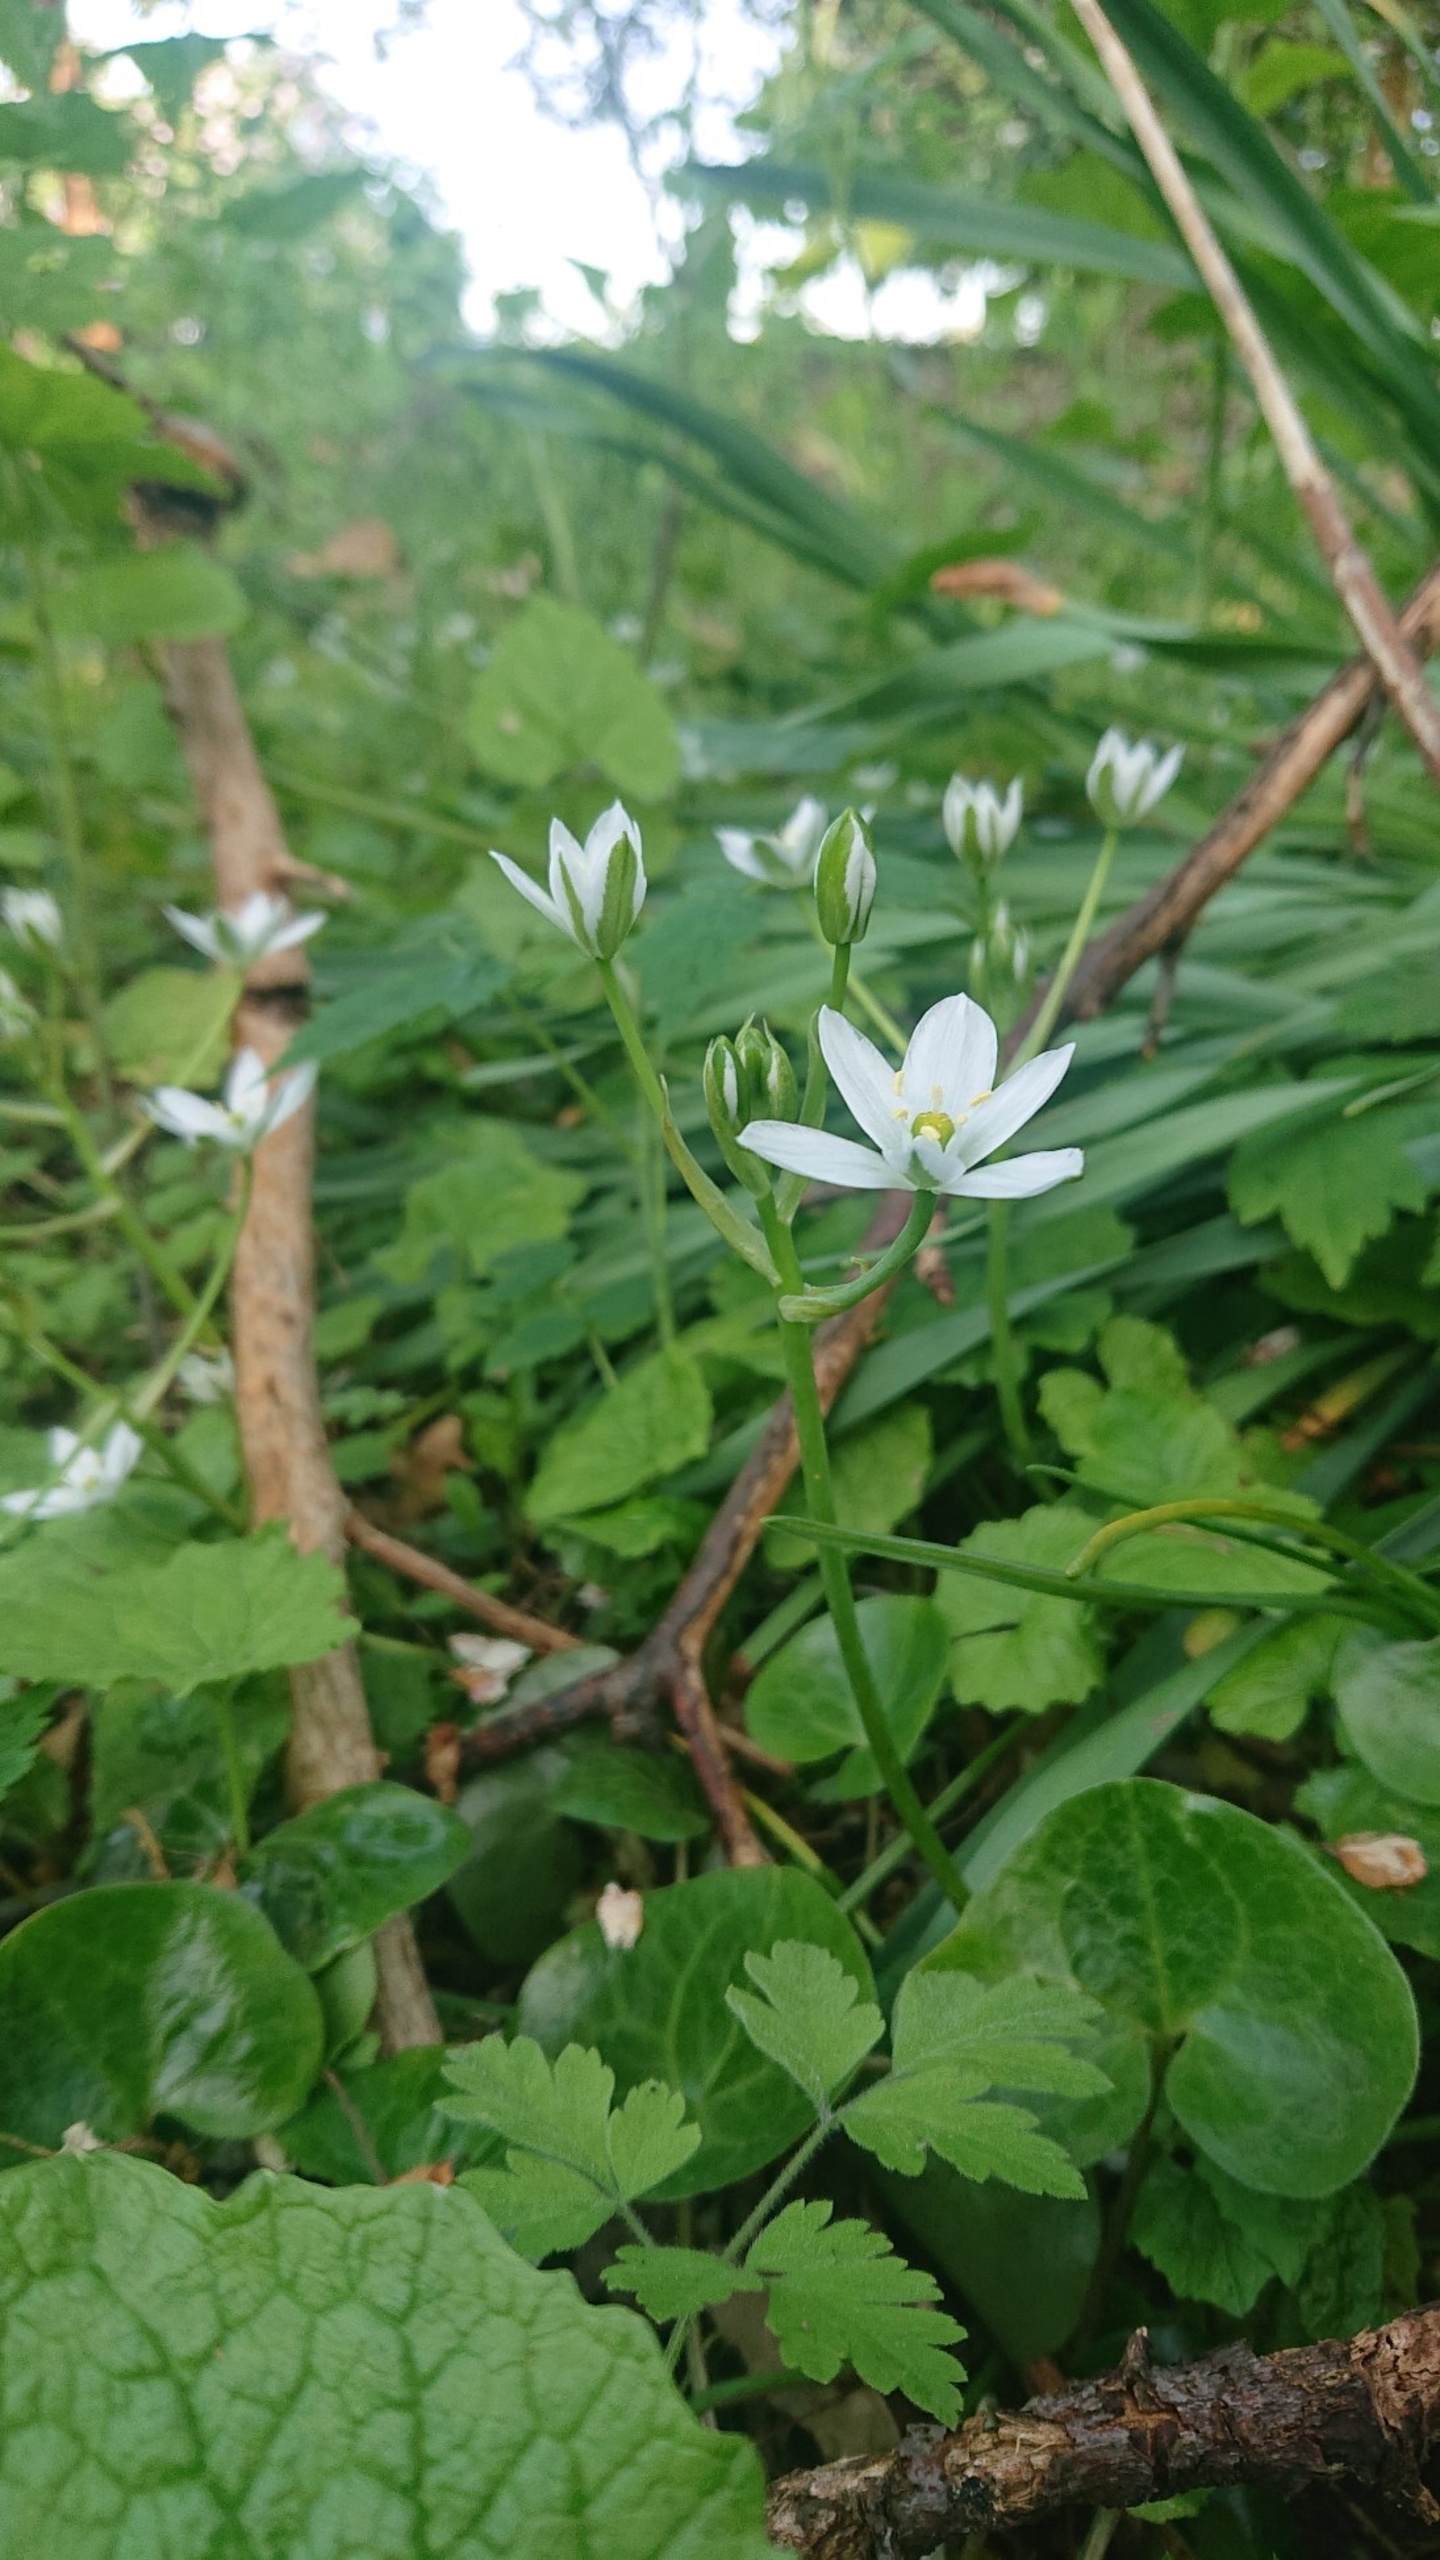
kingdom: Plantae
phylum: Tracheophyta
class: Liliopsida
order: Asparagales
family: Asparagaceae
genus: Ornithogalum
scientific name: Ornithogalum umbellatum
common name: Kost-fuglemælk
